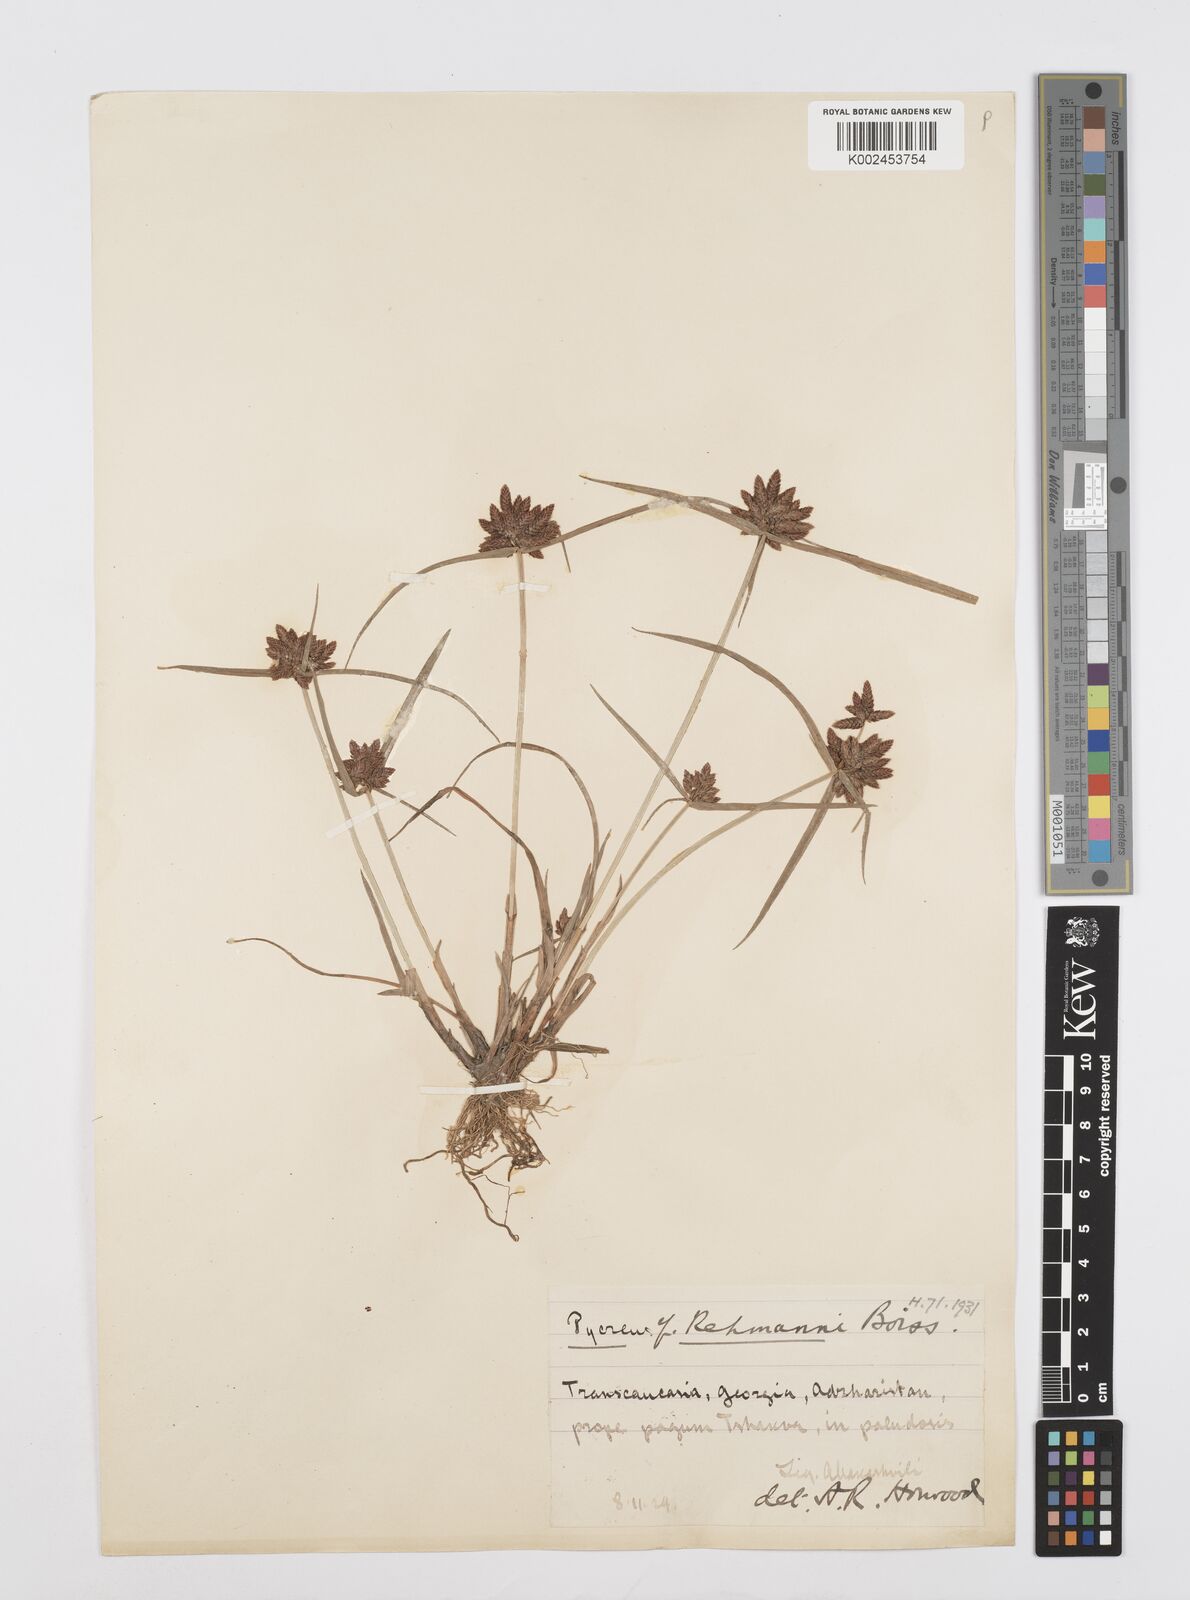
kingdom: Plantae
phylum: Tracheophyta
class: Liliopsida
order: Poales
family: Cyperaceae
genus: Cyperus
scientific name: Cyperus sanguinolentus
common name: Purpleglume flatsedge
